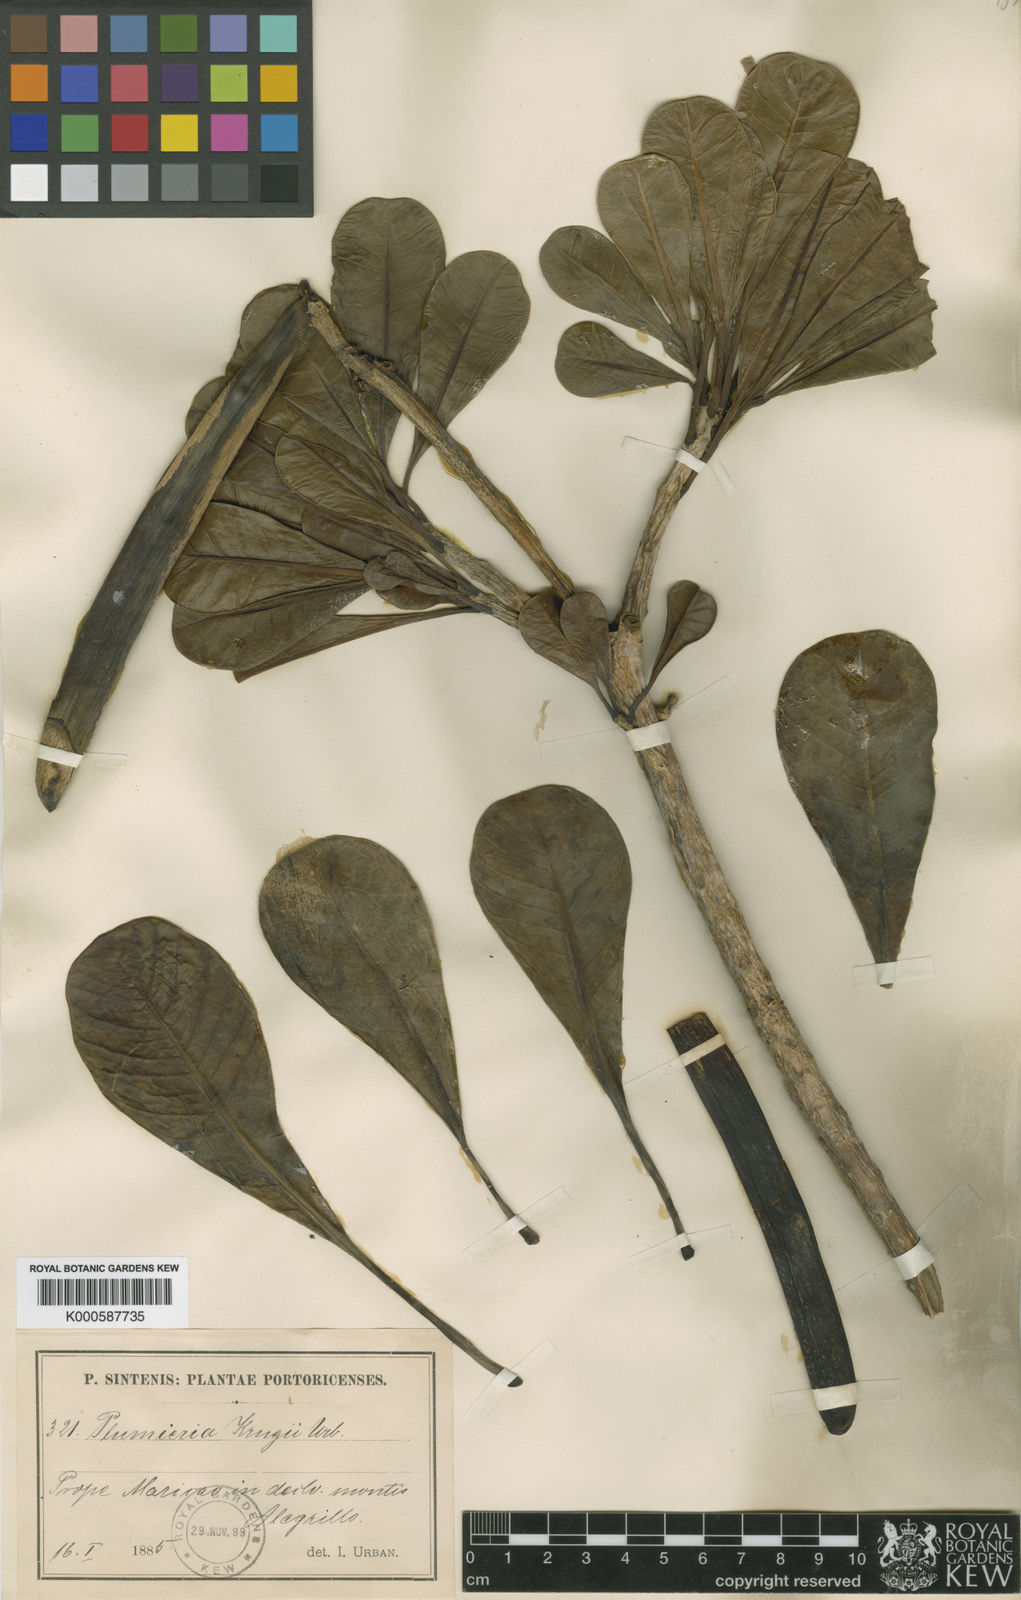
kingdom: Plantae
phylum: Tracheophyta
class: Magnoliopsida
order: Gentianales
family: Apocynaceae
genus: Plumeria
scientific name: Plumeria obtusa
